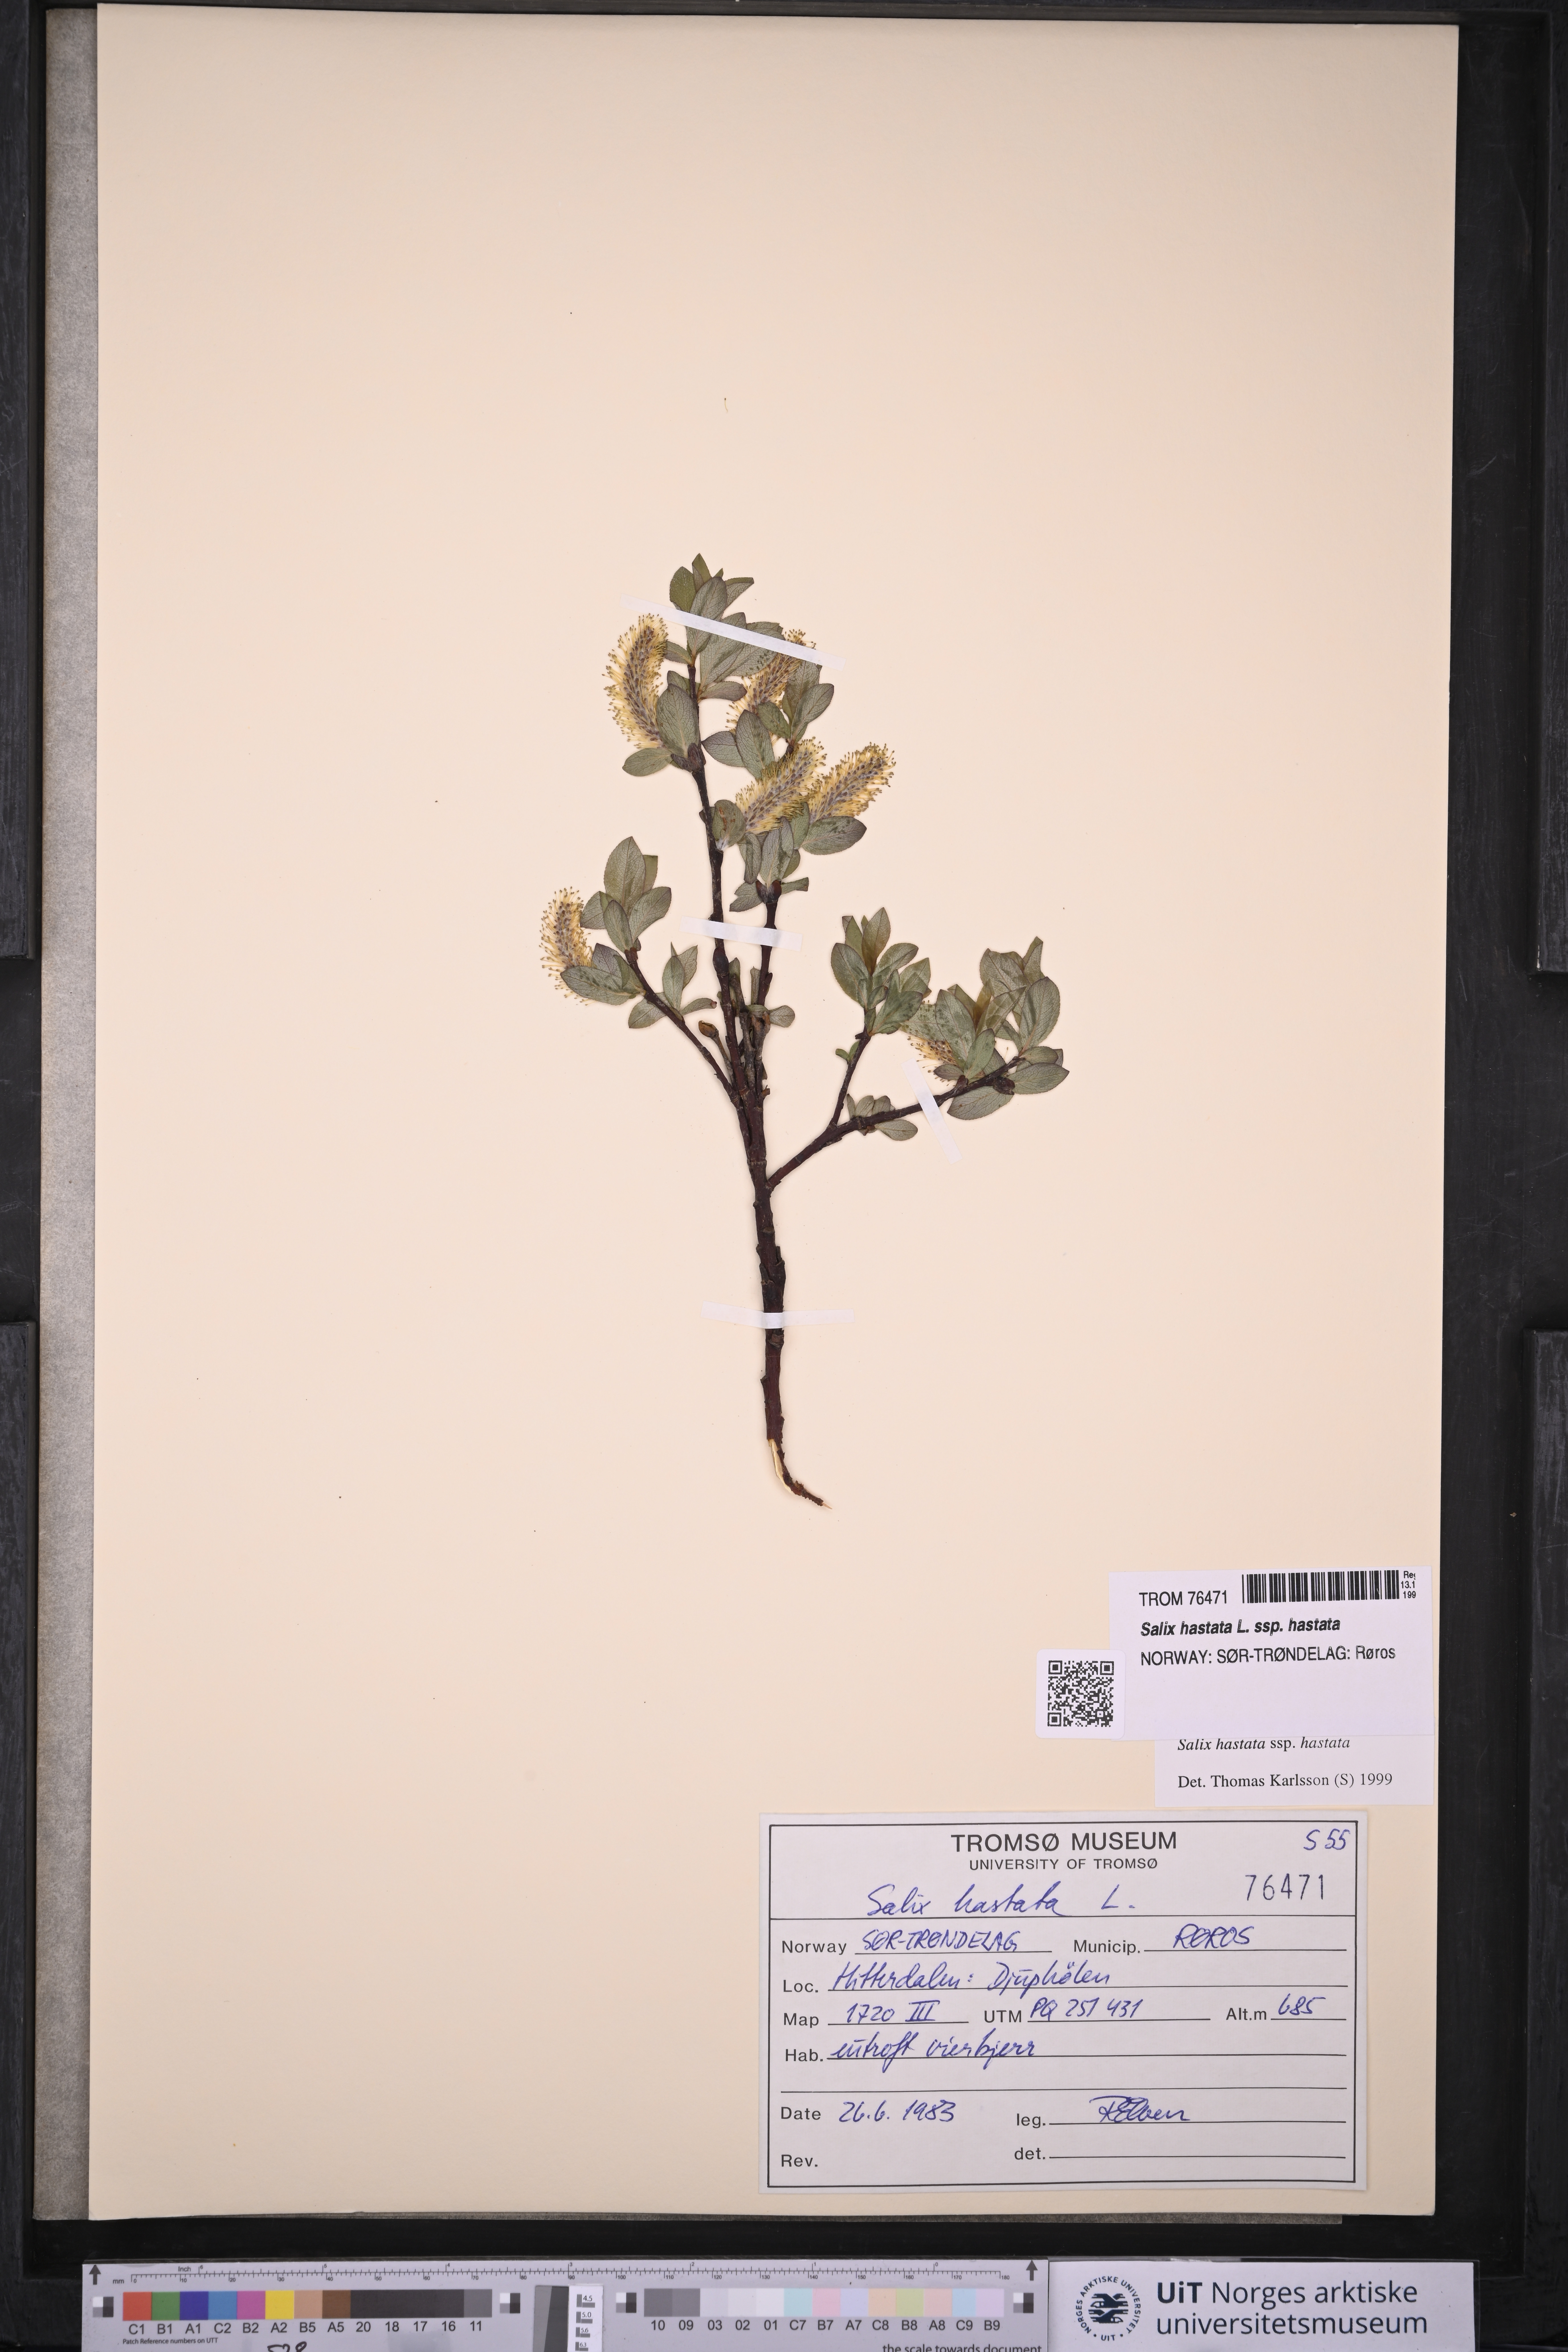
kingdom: Plantae
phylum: Tracheophyta
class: Magnoliopsida
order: Malpighiales
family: Salicaceae
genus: Salix
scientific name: Salix hastata
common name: Halberd willow
